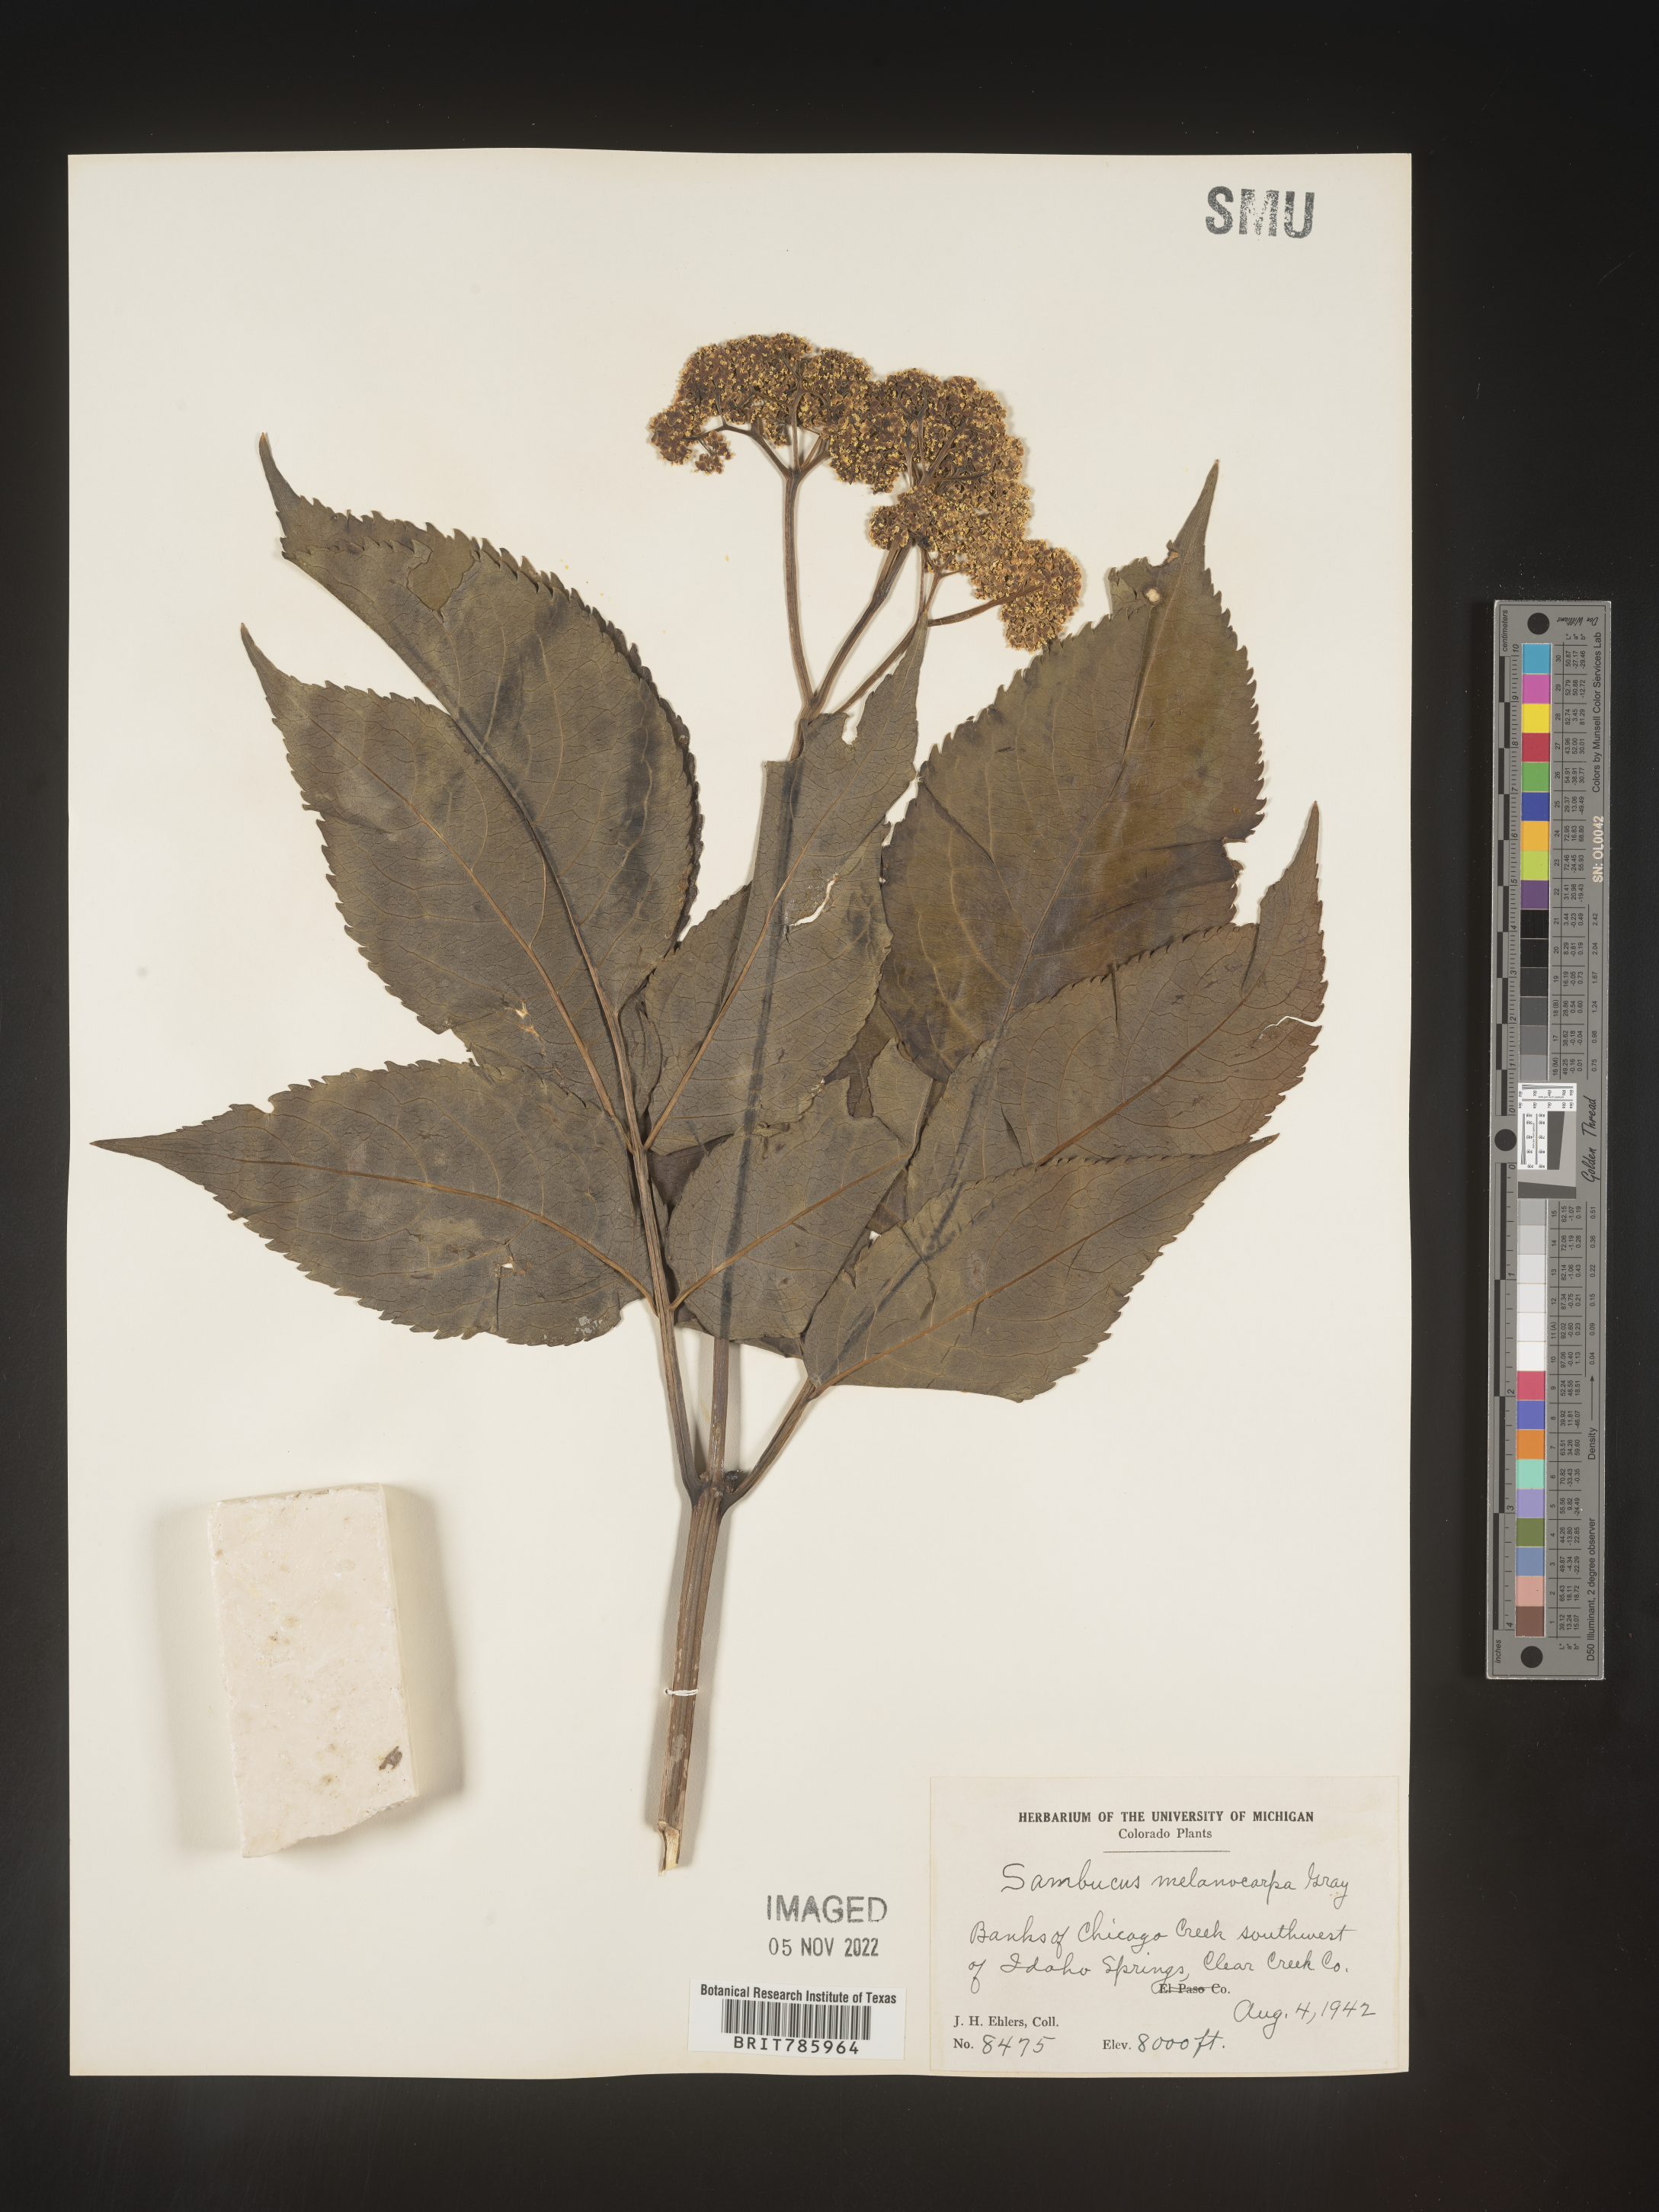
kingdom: Plantae
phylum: Tracheophyta
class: Magnoliopsida
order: Dipsacales
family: Viburnaceae
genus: Sambucus
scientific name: Sambucus racemosa
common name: Red-berried elder
